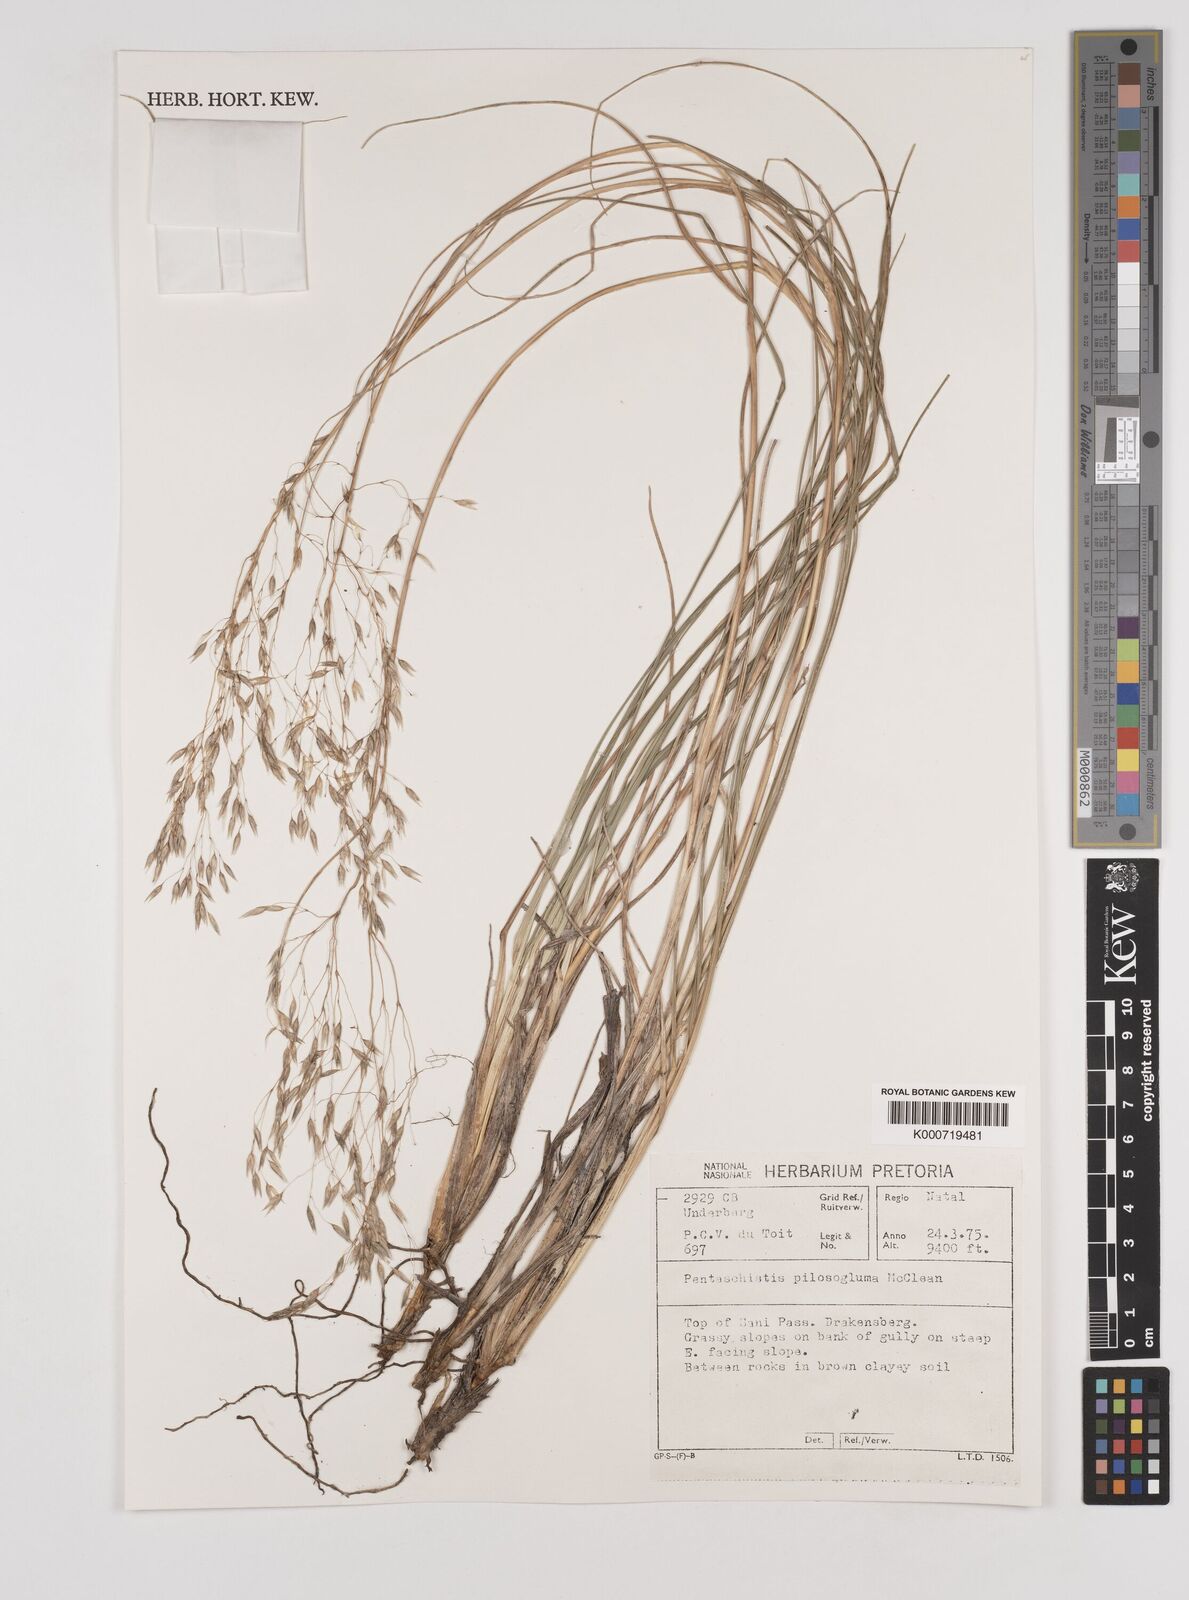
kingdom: Plantae
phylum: Tracheophyta
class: Liliopsida
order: Poales
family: Poaceae
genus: Pentameris
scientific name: Pentameris aurea
